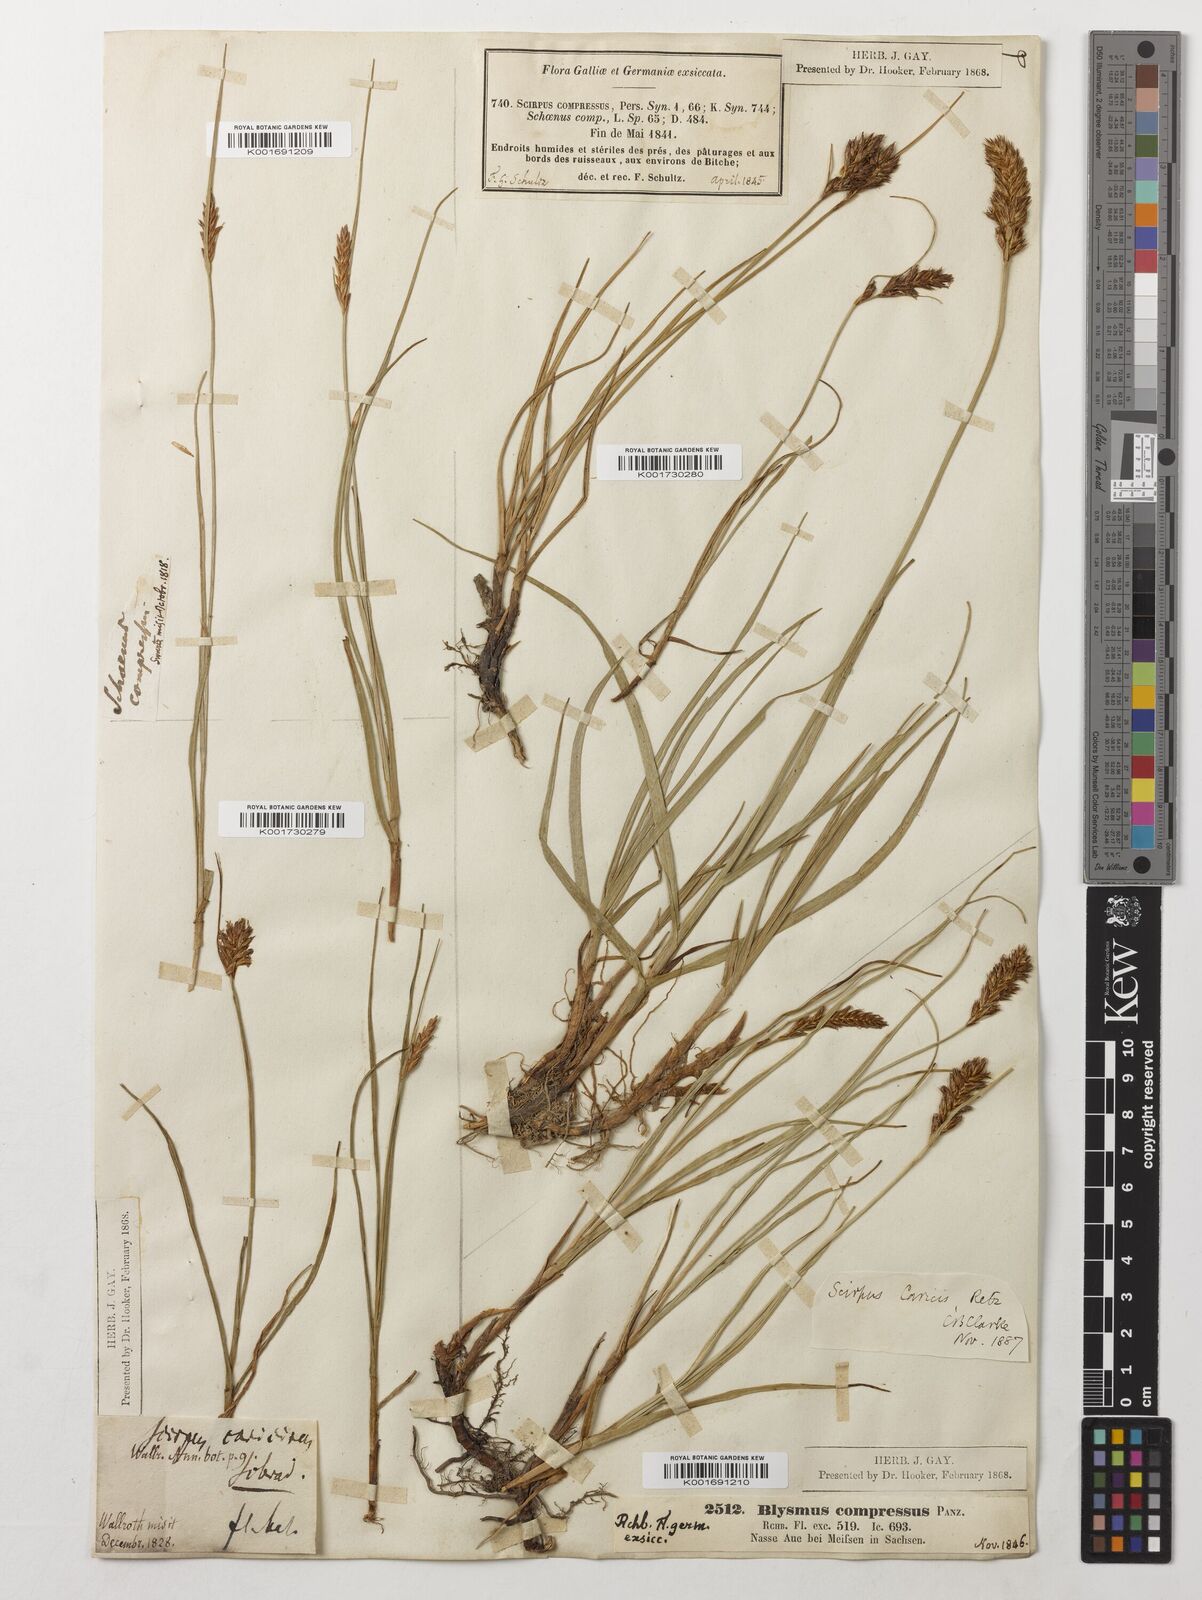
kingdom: Plantae
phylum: Tracheophyta
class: Liliopsida
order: Poales
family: Cyperaceae
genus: Blysmus
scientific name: Blysmus compressus
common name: Flat-sedge
